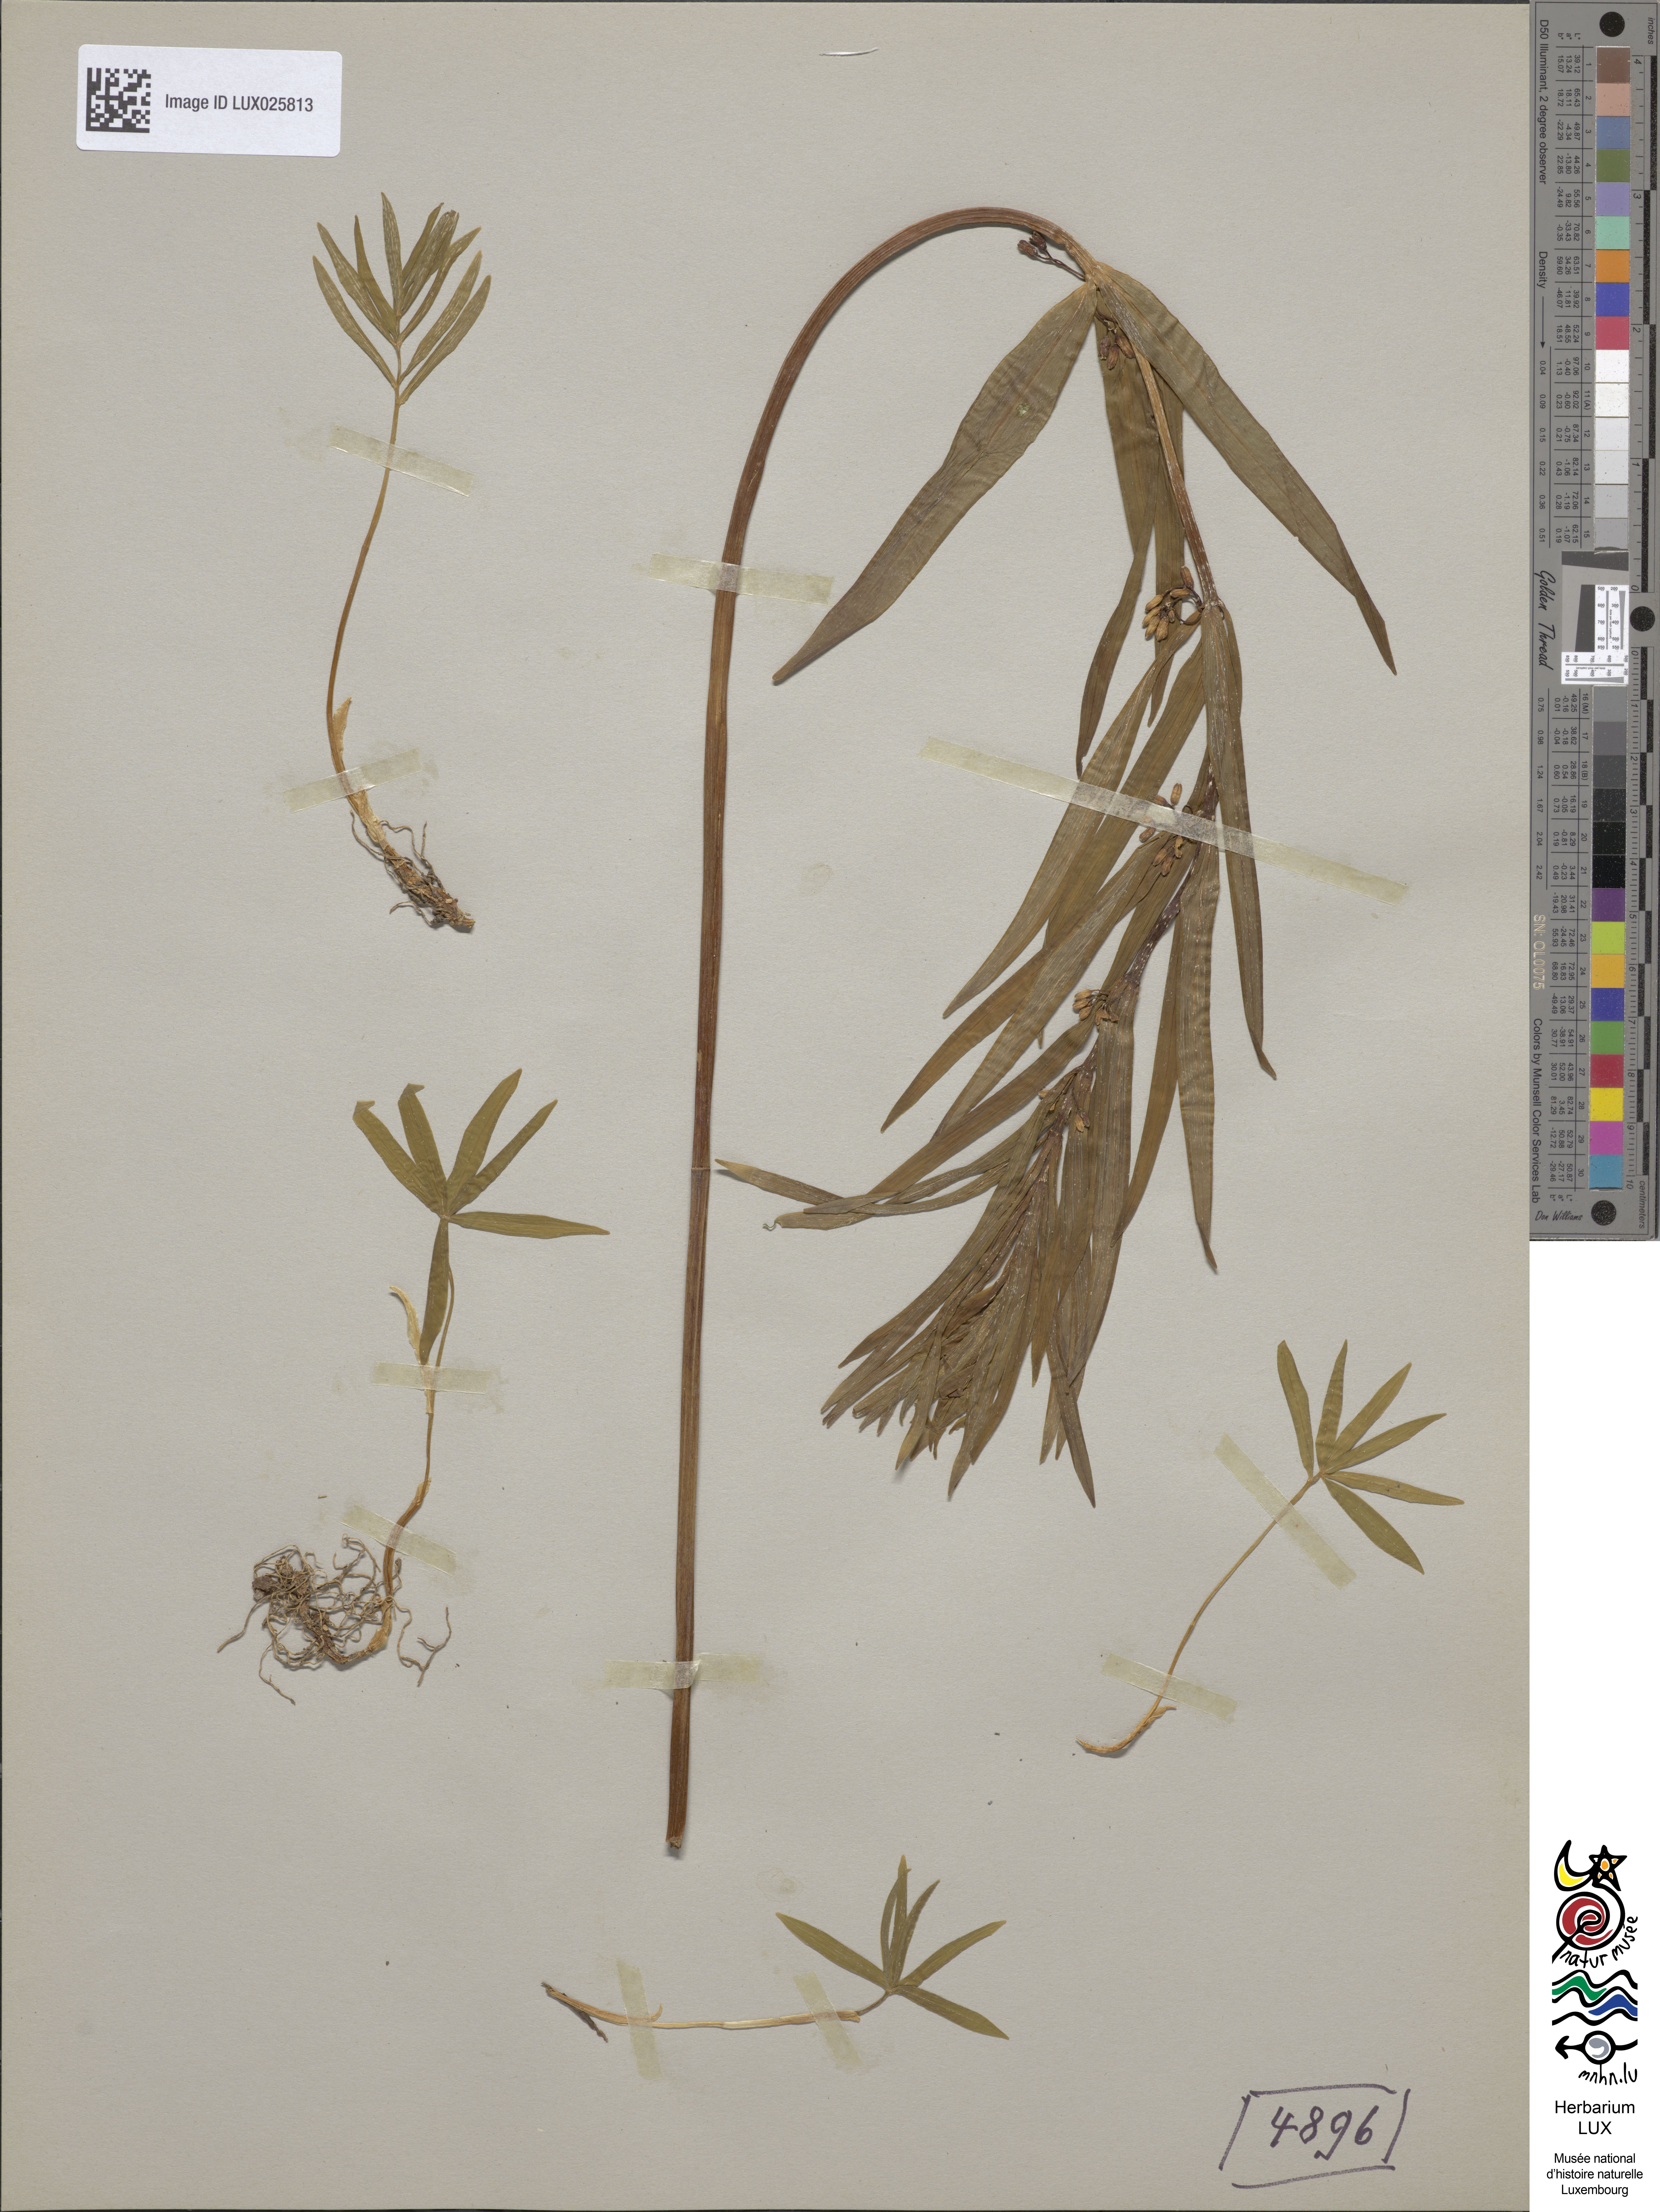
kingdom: Plantae
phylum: Tracheophyta
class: Liliopsida
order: Asparagales
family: Asparagaceae
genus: Polygonatum
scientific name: Polygonatum verticillatum
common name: Whorled solomon's-seal
